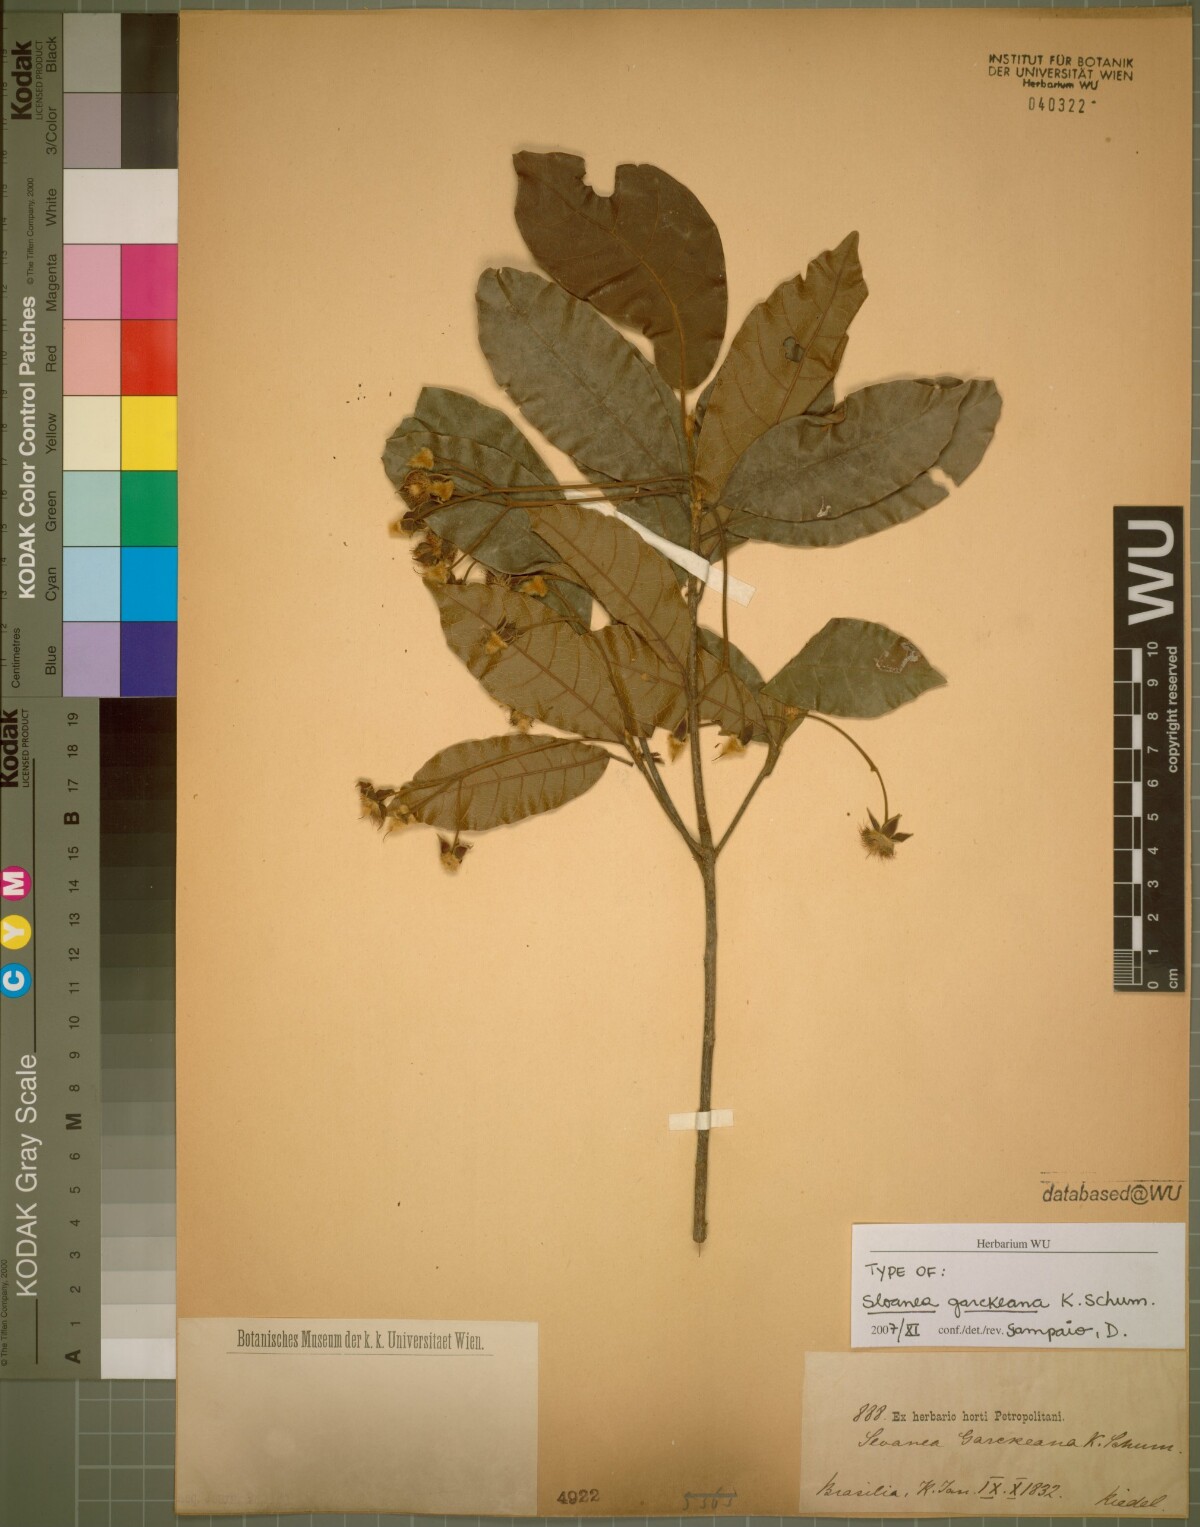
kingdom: Plantae
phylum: Tracheophyta
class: Magnoliopsida
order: Oxalidales
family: Elaeocarpaceae
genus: Sloanea
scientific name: Sloanea garckeana
